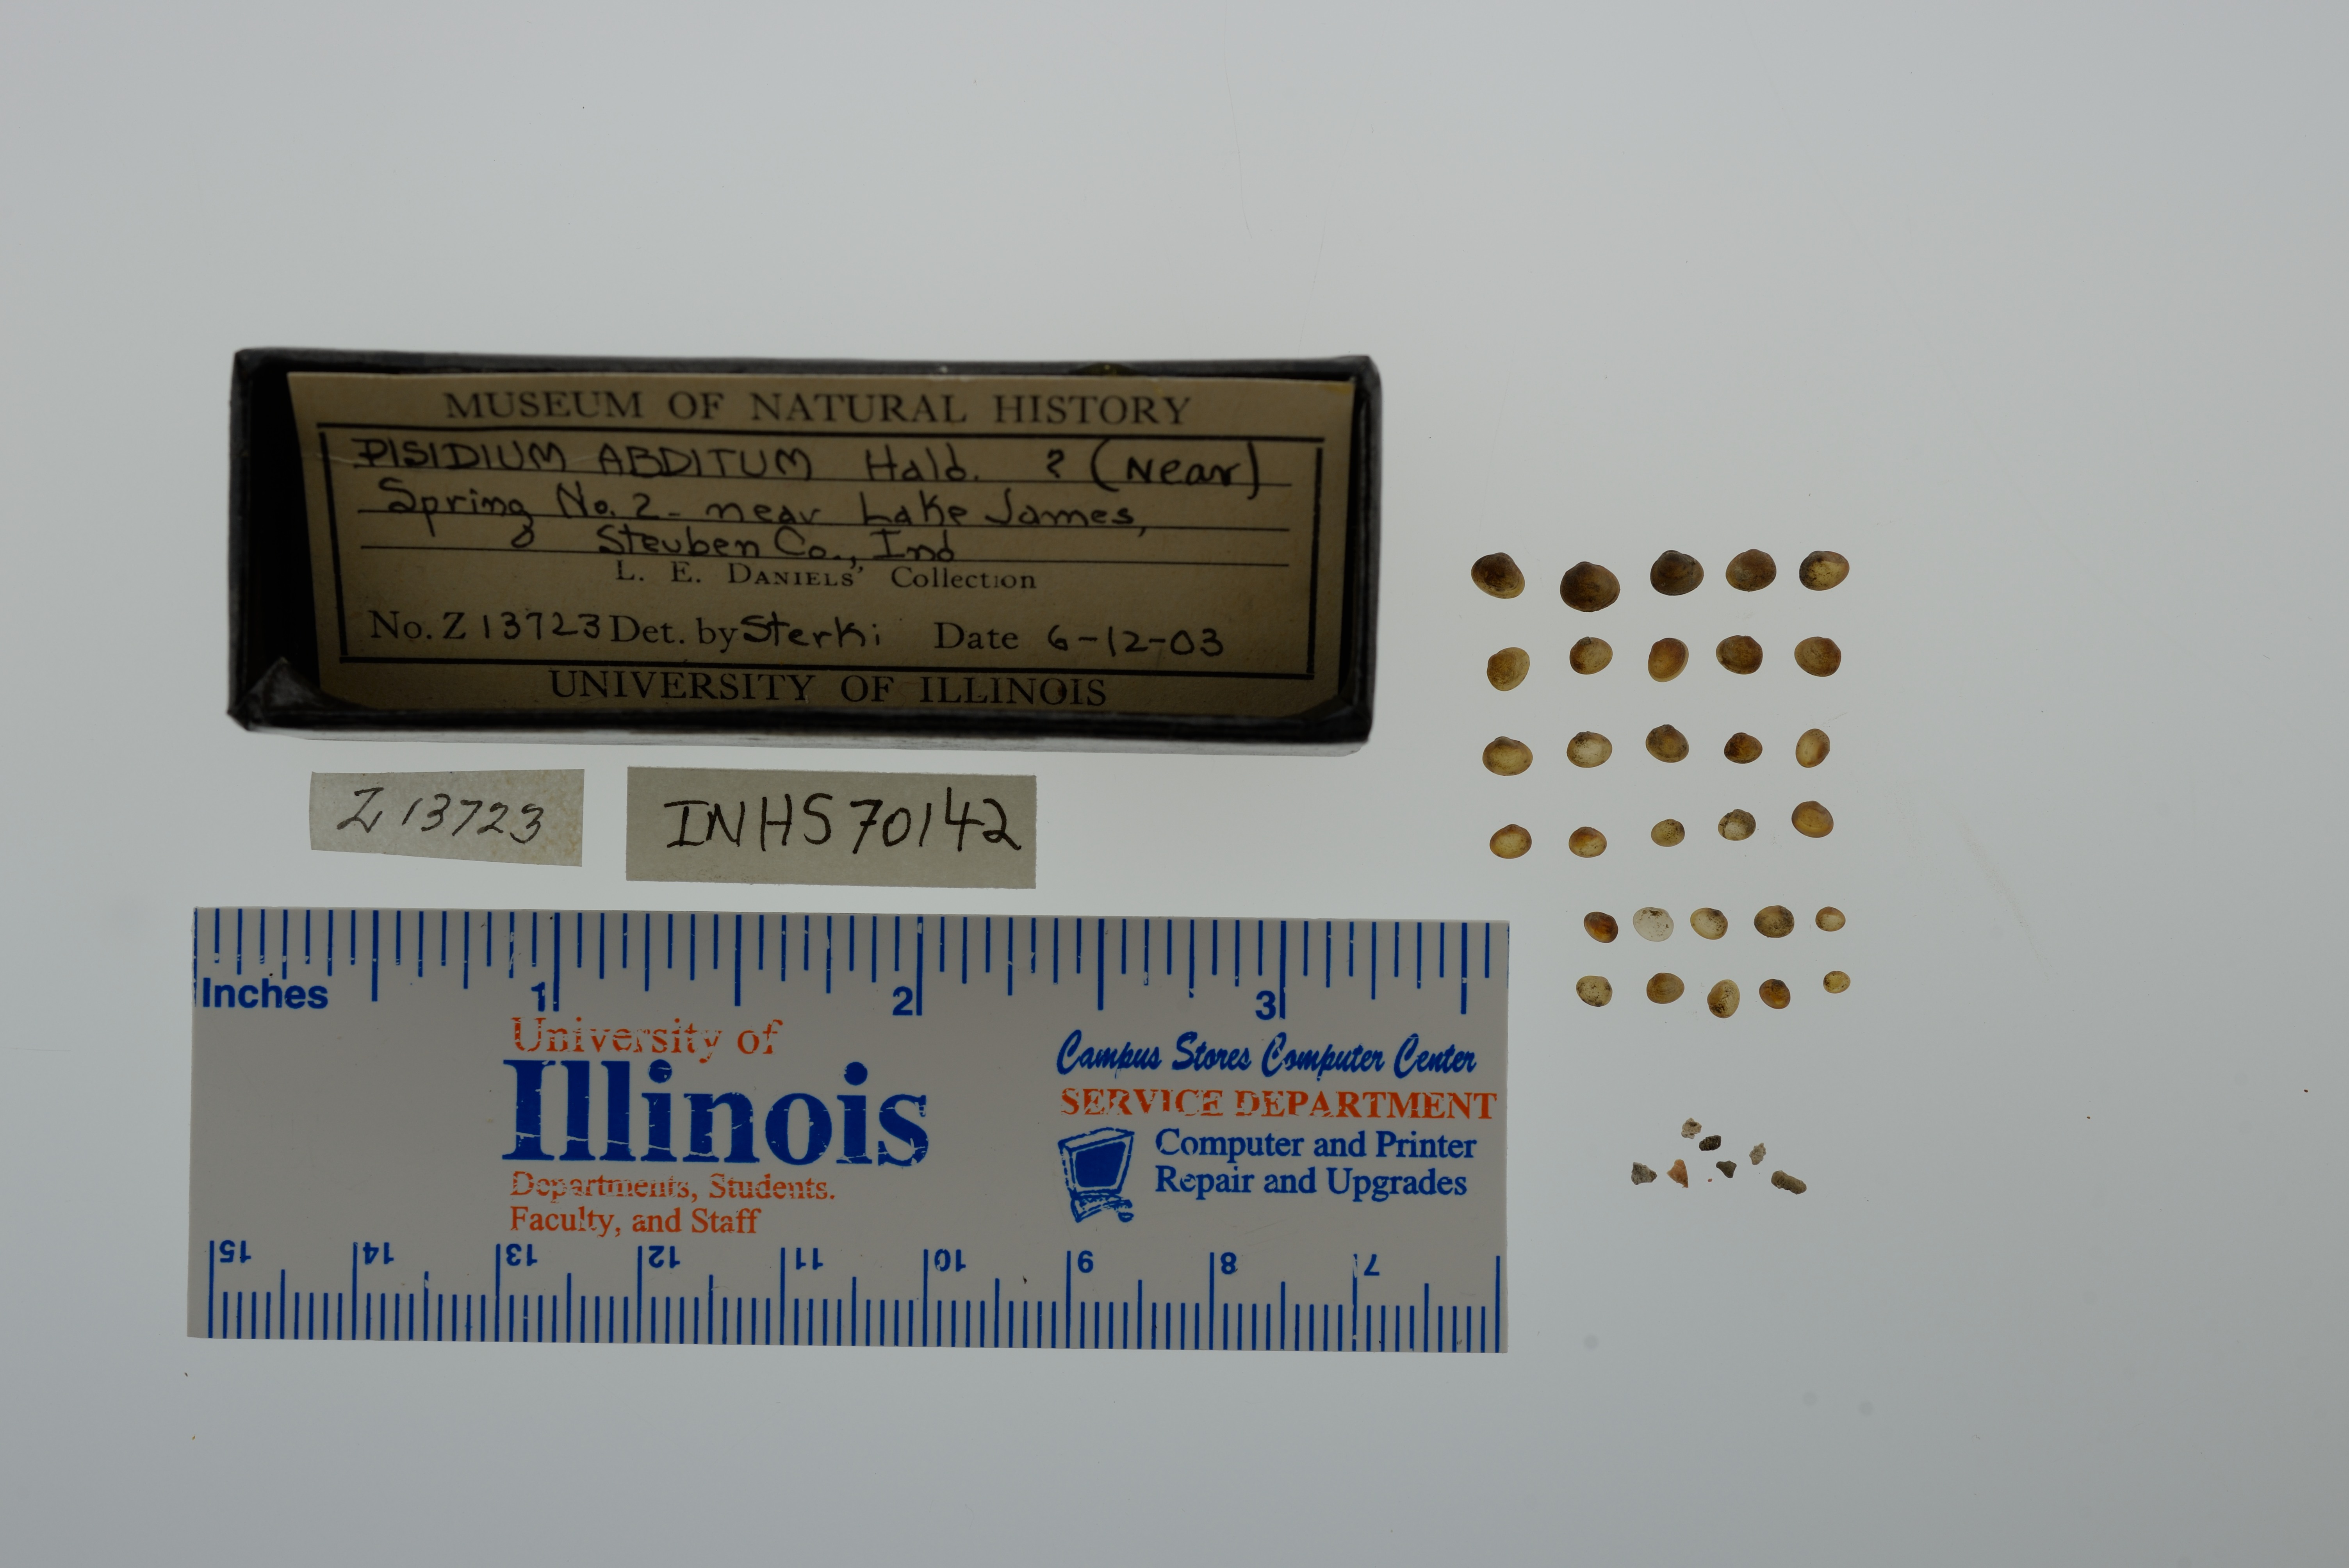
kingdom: Animalia
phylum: Mollusca
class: Bivalvia
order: Sphaeriida
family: Sphaeriidae
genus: Euglesa
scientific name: Euglesa casertana
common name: Caserta pea mussel
